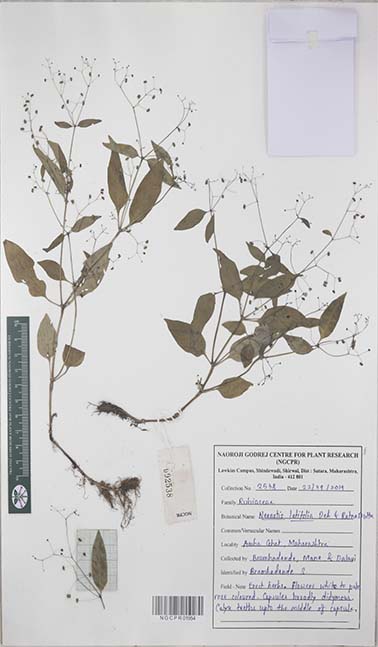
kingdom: Plantae
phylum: Tracheophyta
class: Magnoliopsida
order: Gentianales
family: Rubiaceae
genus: Neanotis
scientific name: Neanotis latifolia
